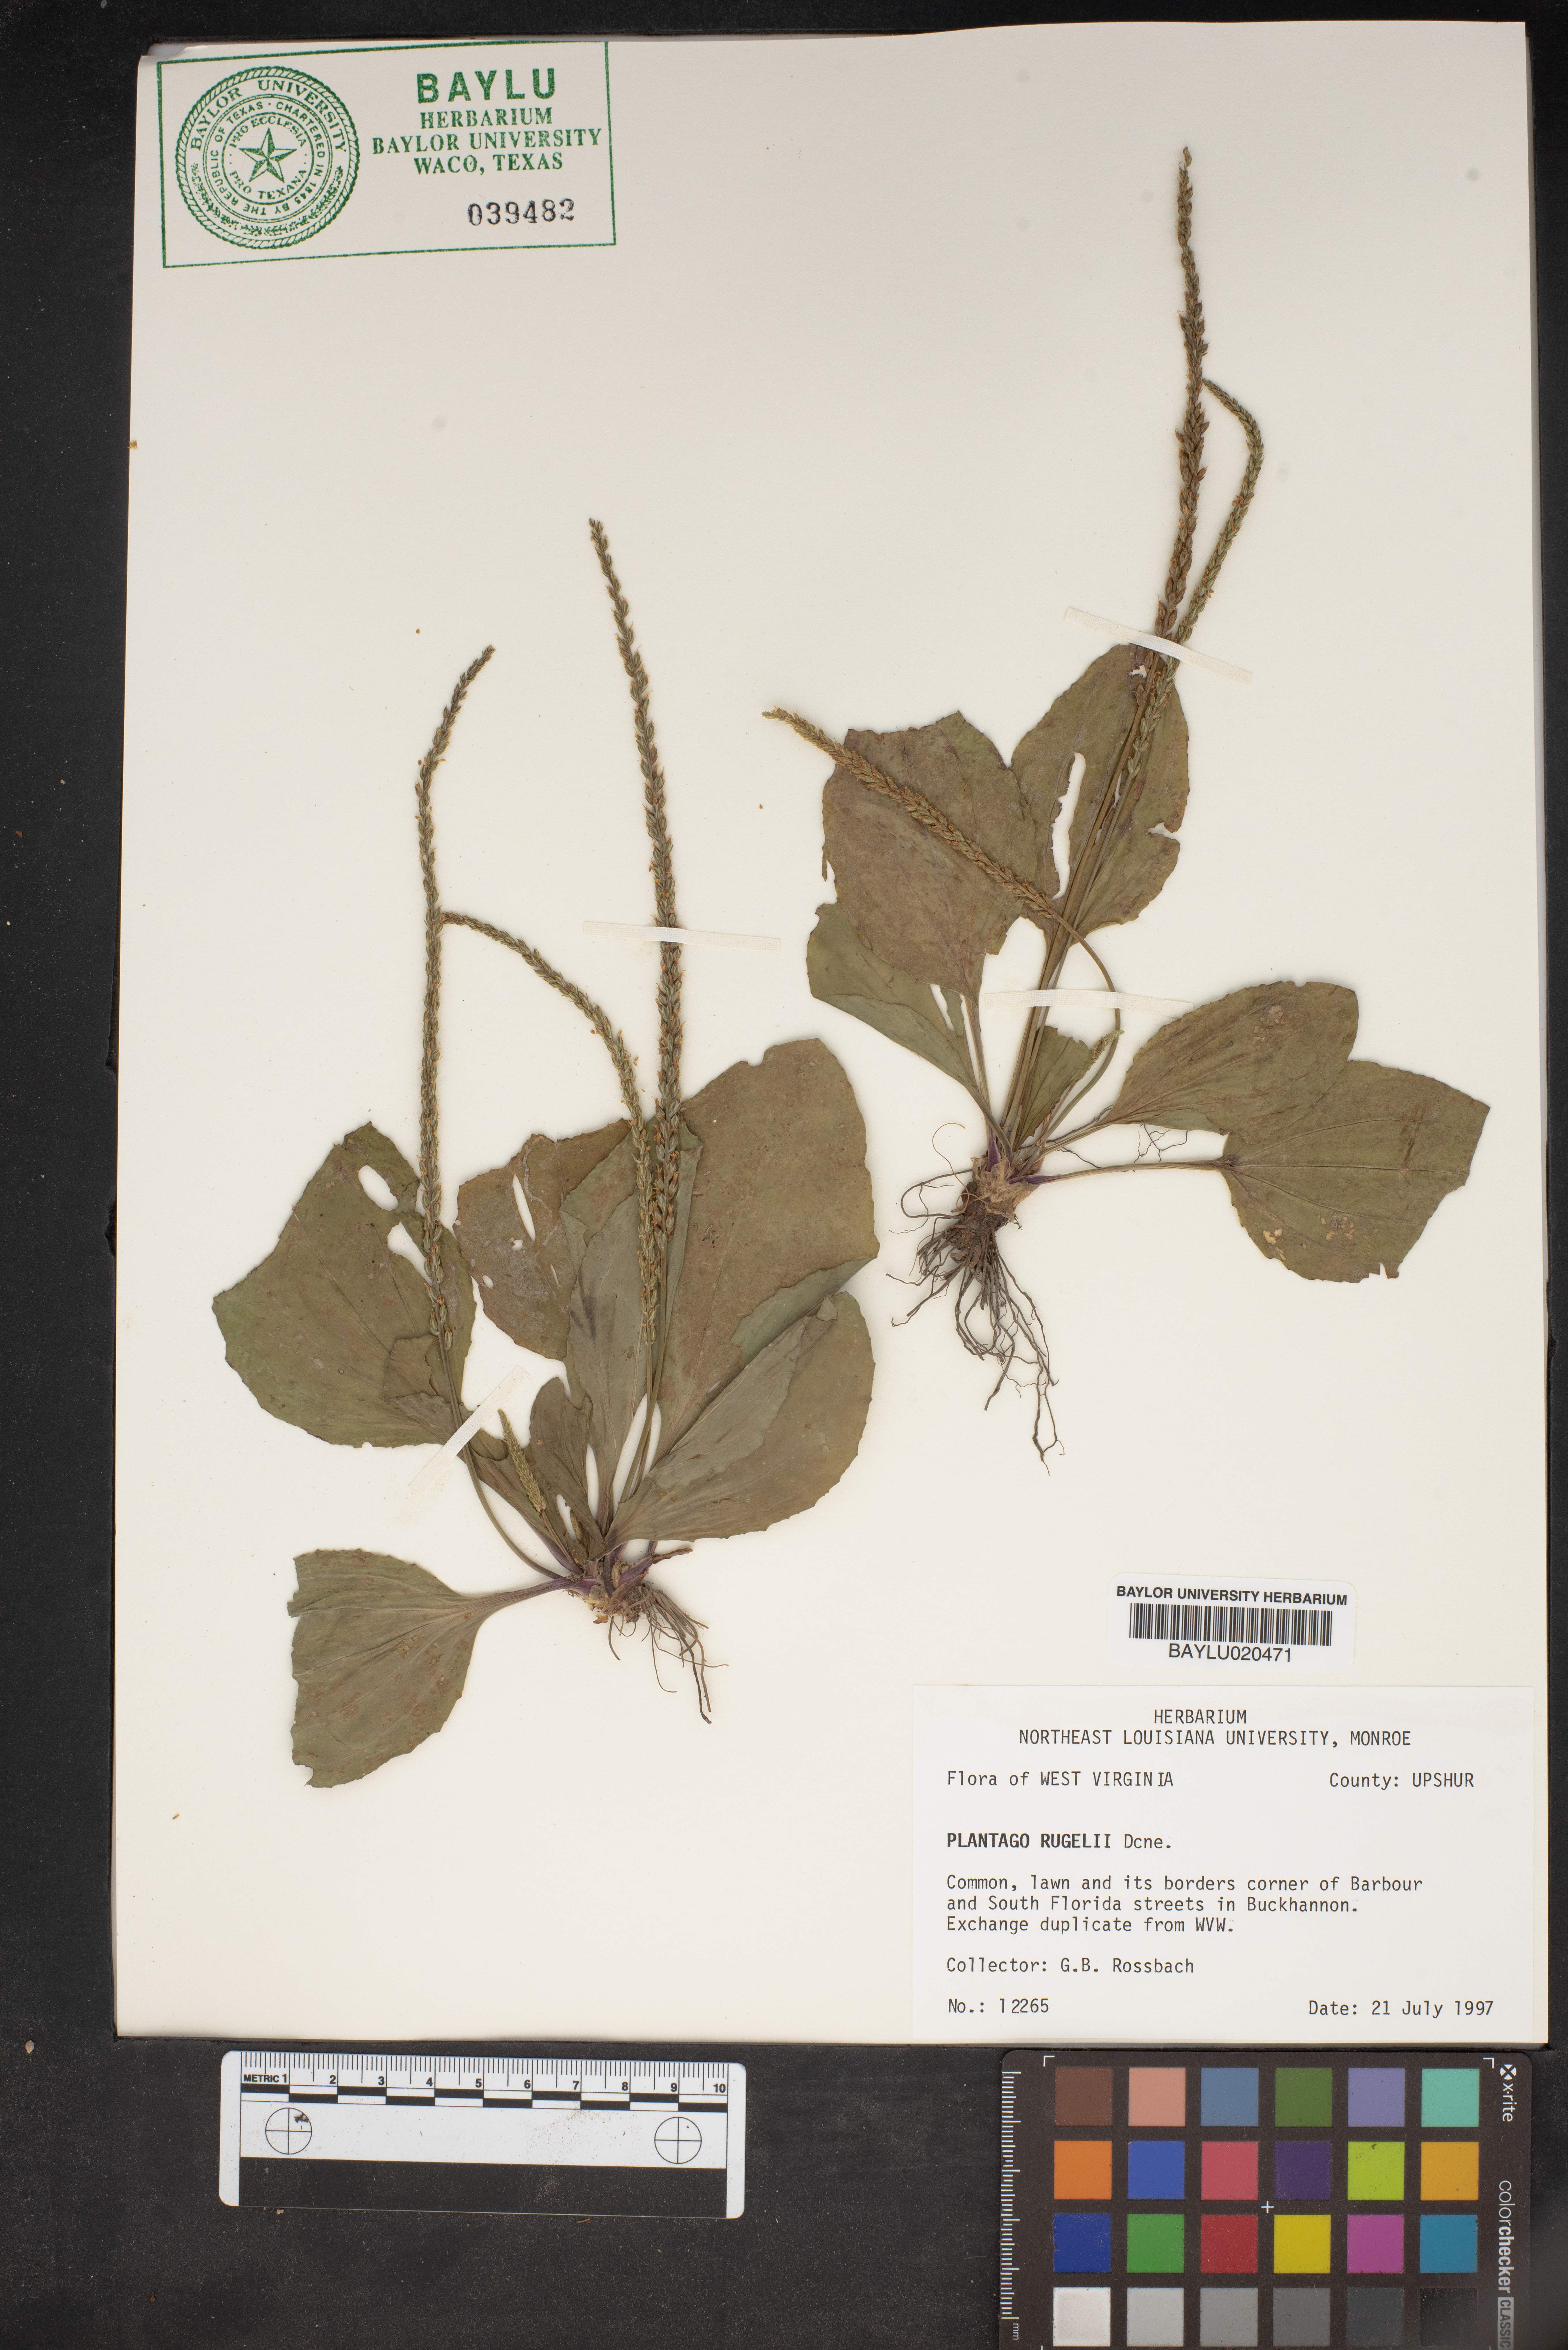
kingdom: Plantae
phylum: Tracheophyta
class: Magnoliopsida
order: Lamiales
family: Plantaginaceae
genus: Plantago
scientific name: Plantago rugelii
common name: American plantain
